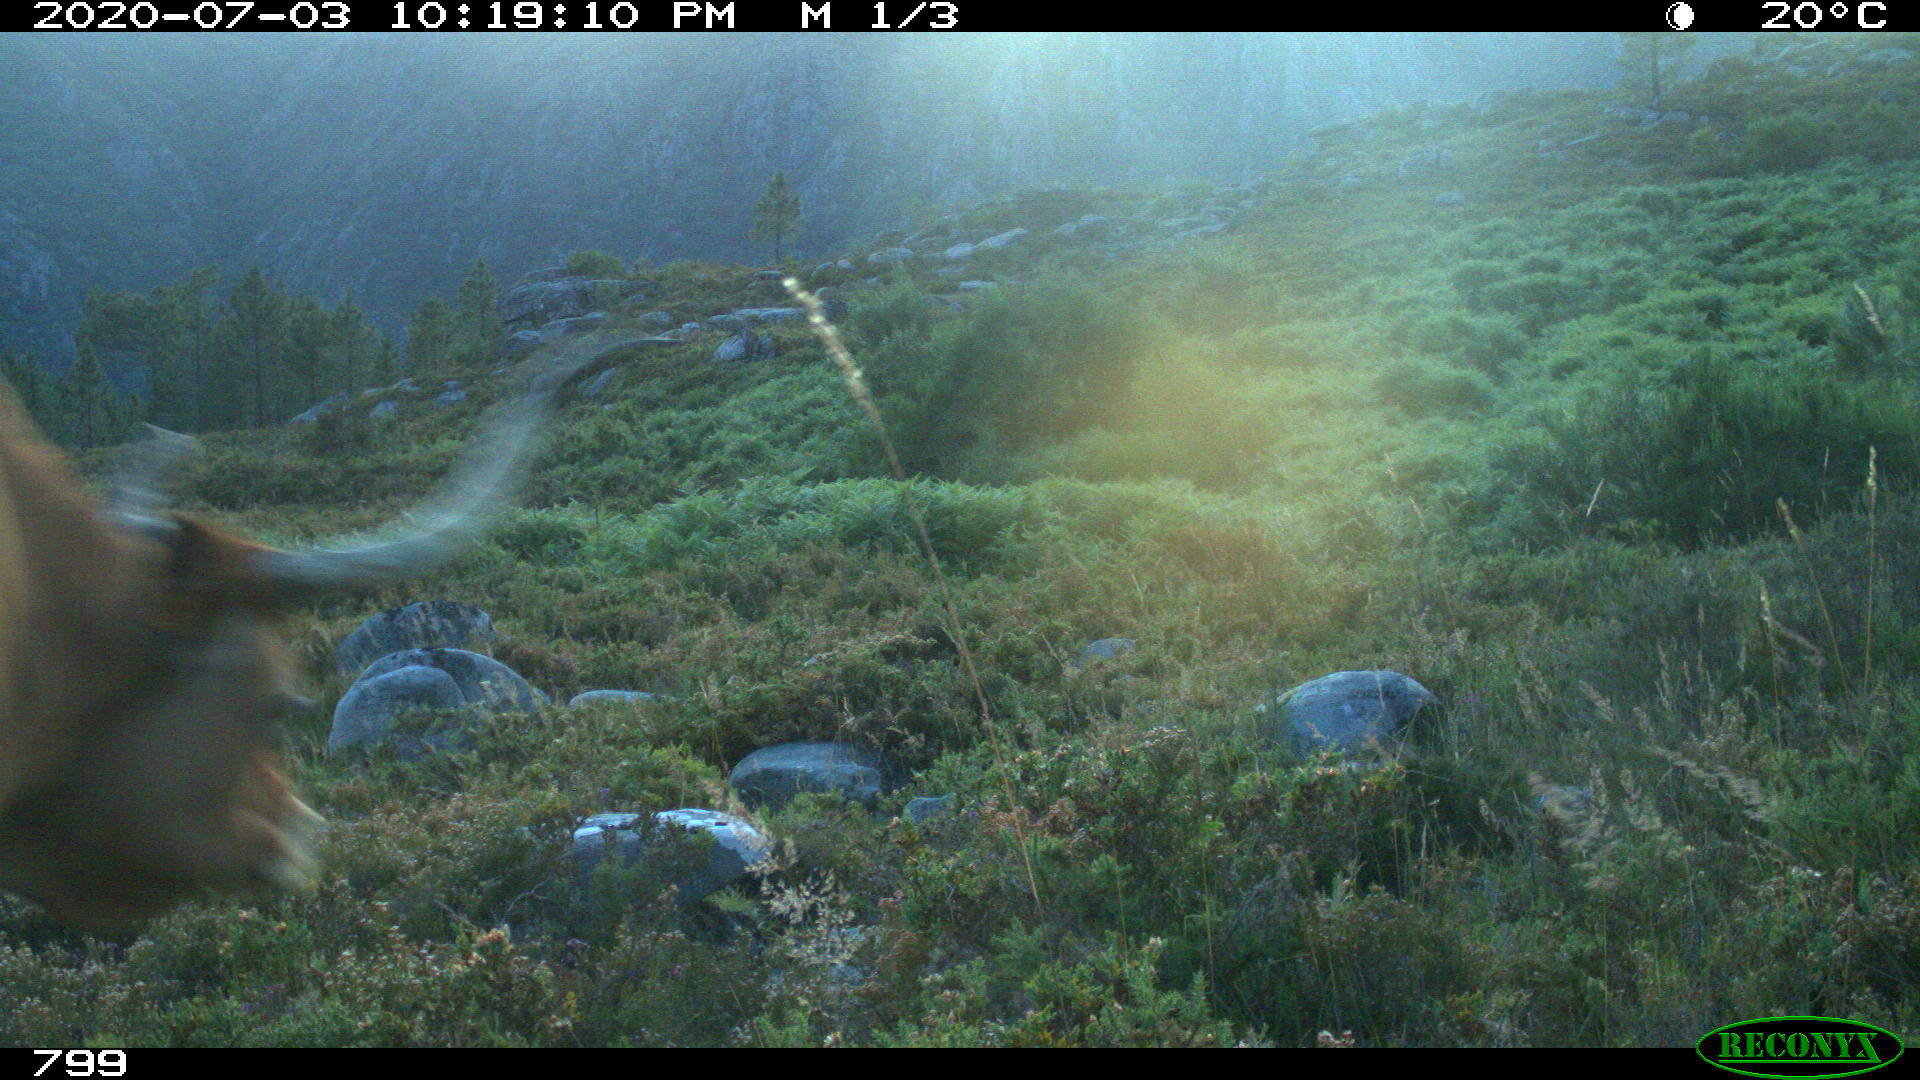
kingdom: Animalia
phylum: Chordata
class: Mammalia
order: Artiodactyla
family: Bovidae
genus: Bos
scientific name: Bos taurus
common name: Domesticated cattle
